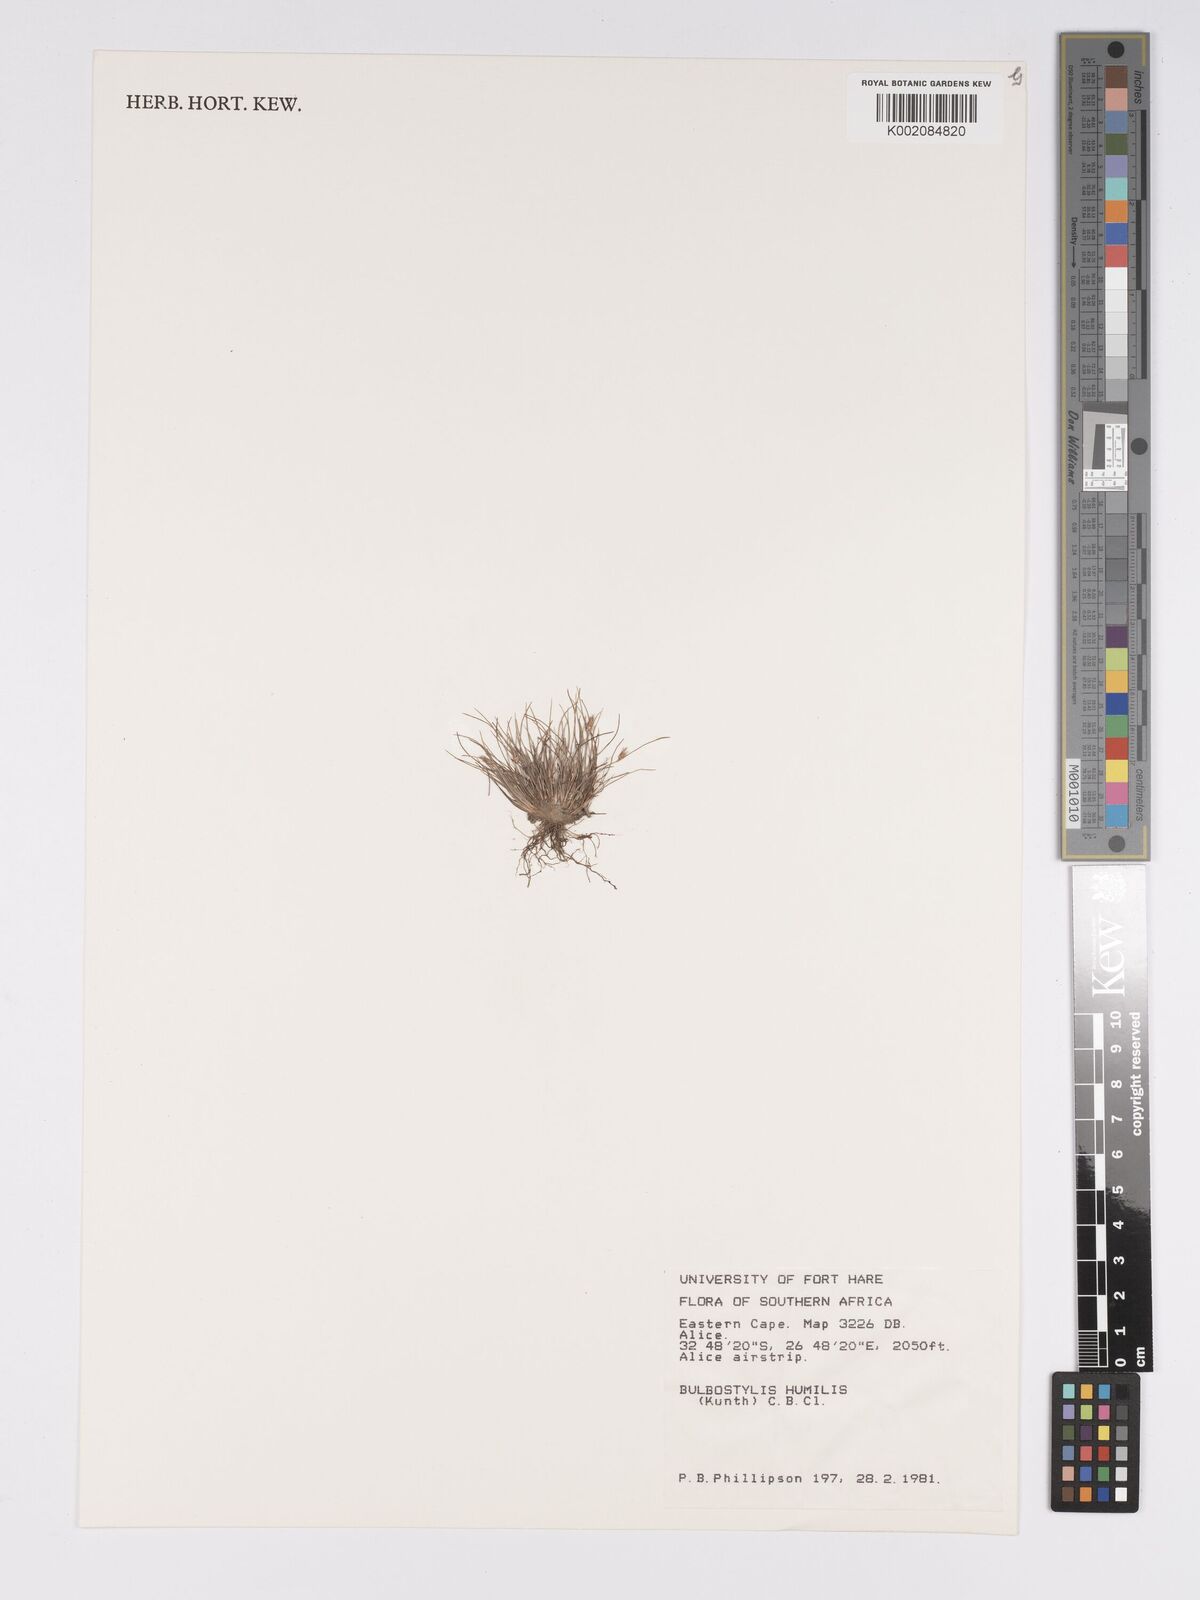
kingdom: Plantae
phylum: Tracheophyta
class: Liliopsida
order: Poales
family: Cyperaceae
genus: Bulbostylis
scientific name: Bulbostylis humilis
